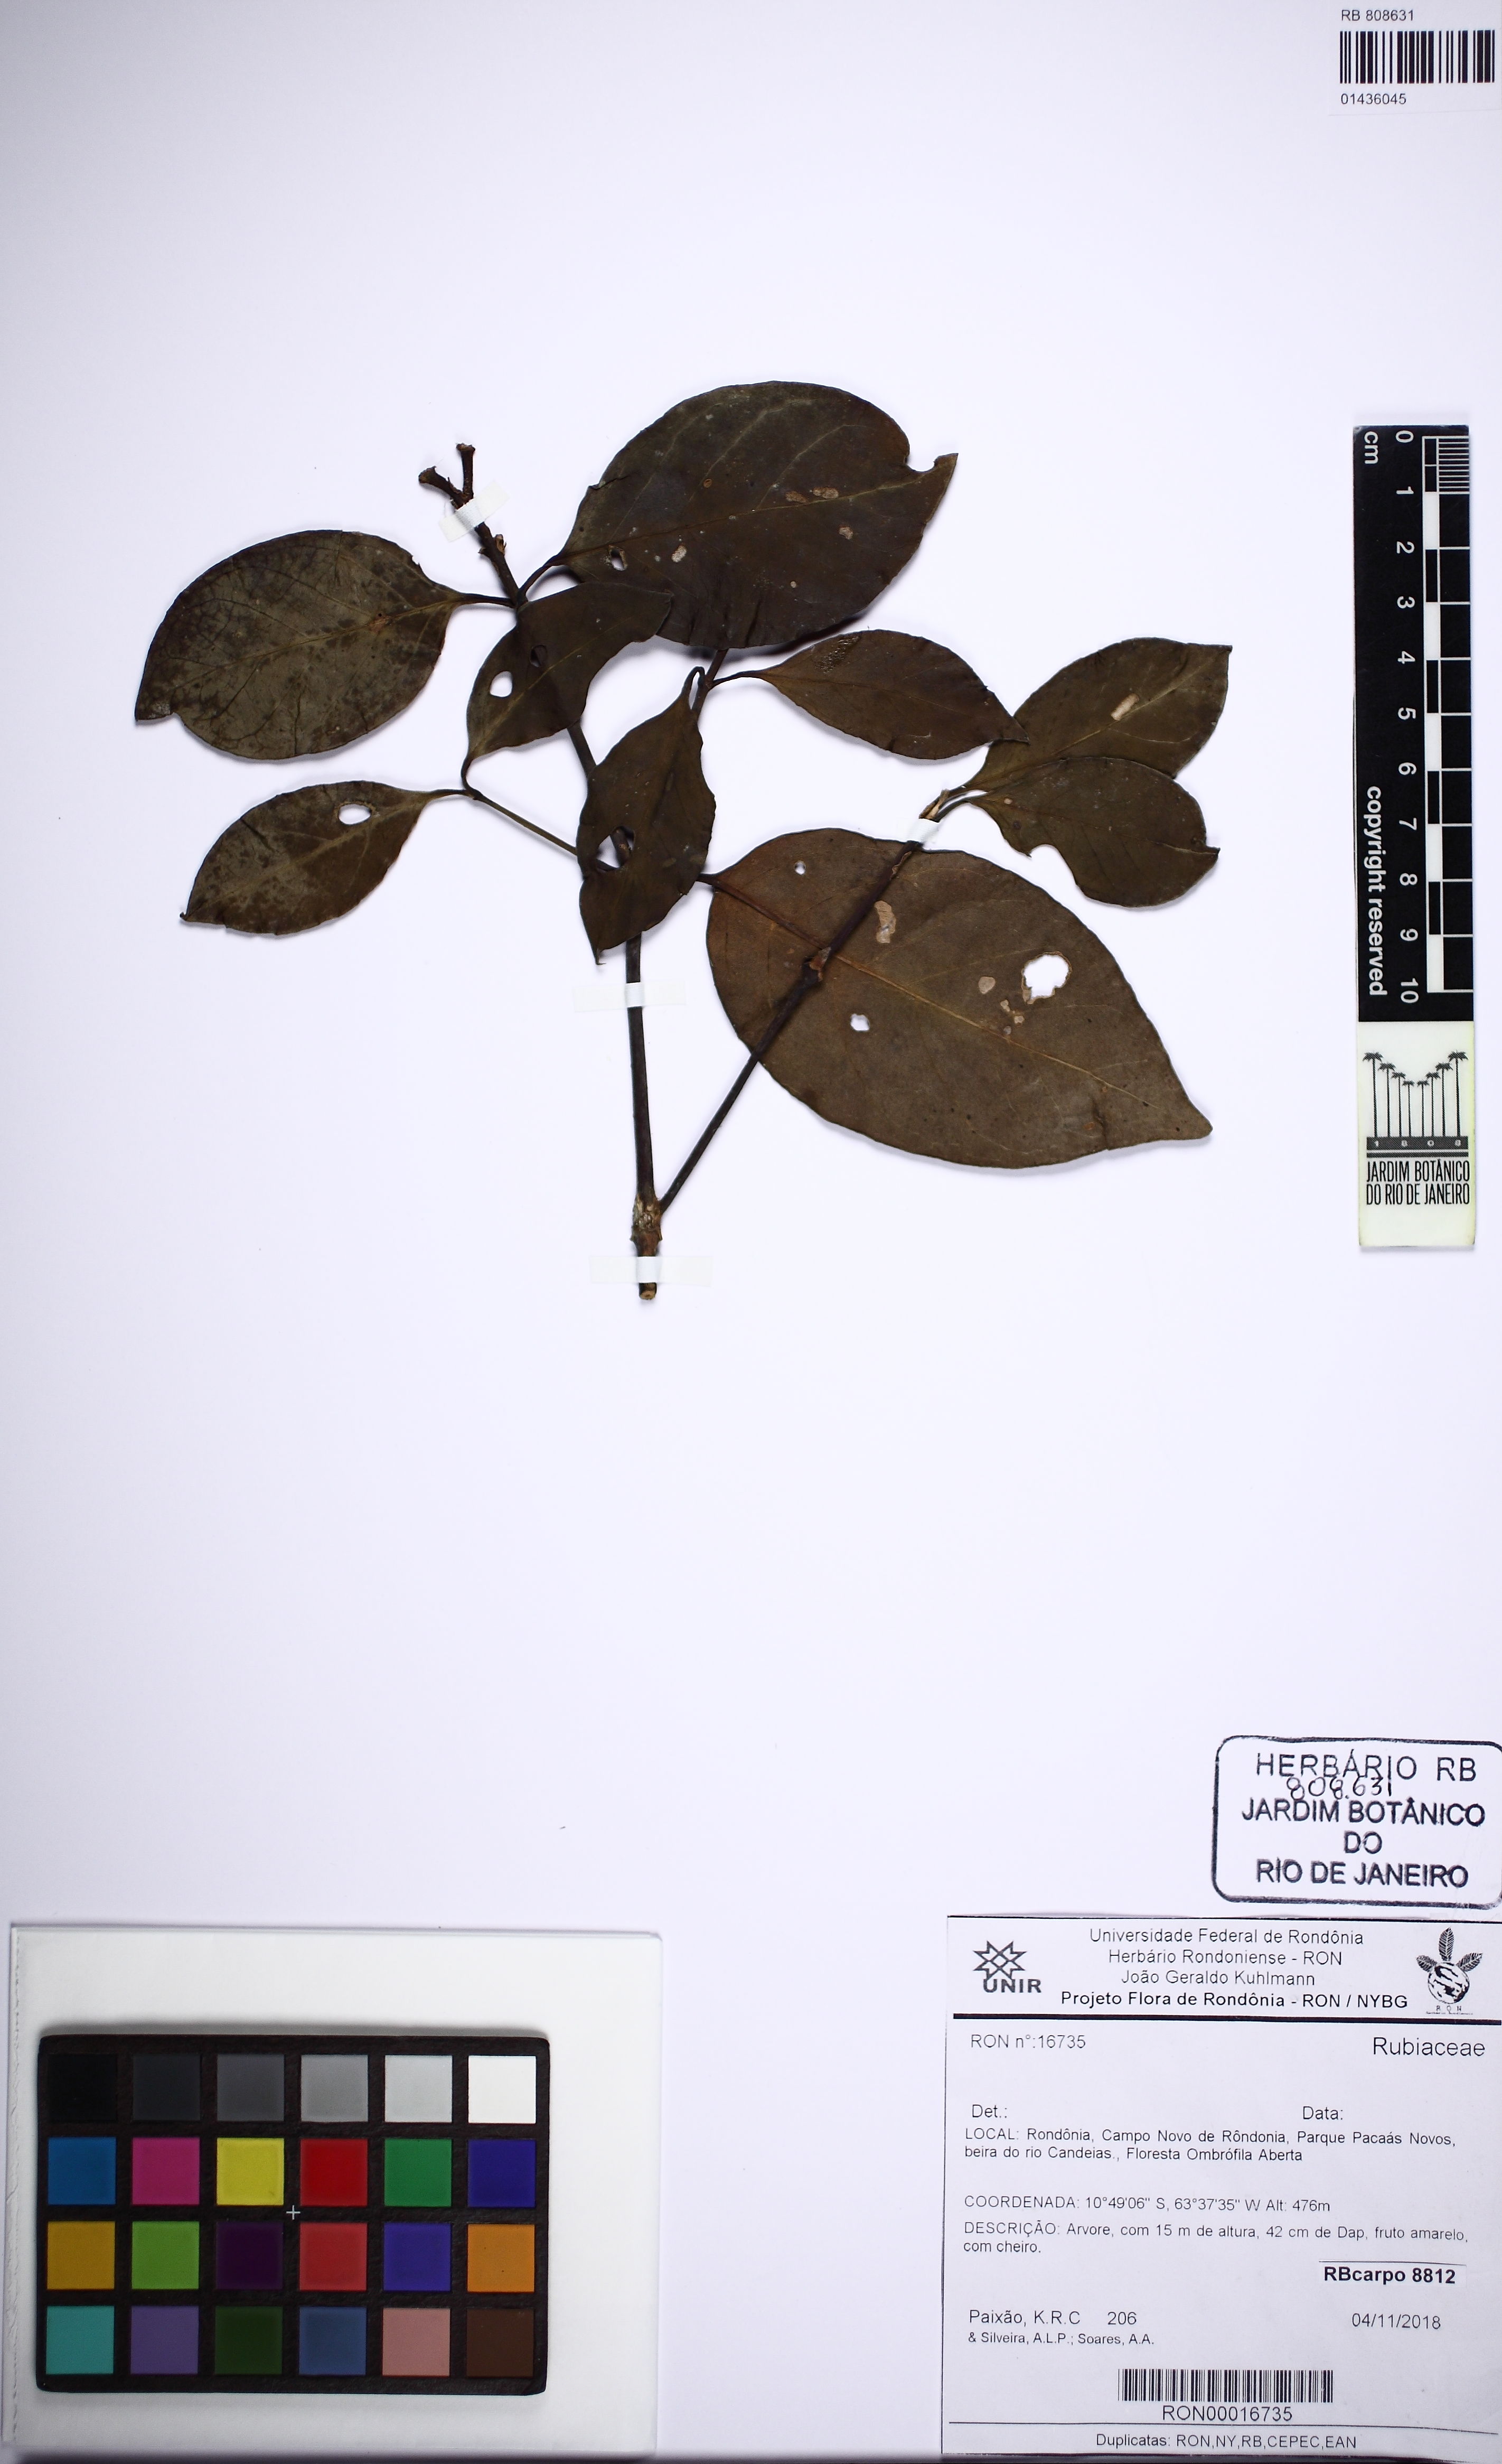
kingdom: Plantae
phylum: Tracheophyta
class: Magnoliopsida
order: Gentianales
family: Rubiaceae
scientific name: Rubiaceae
